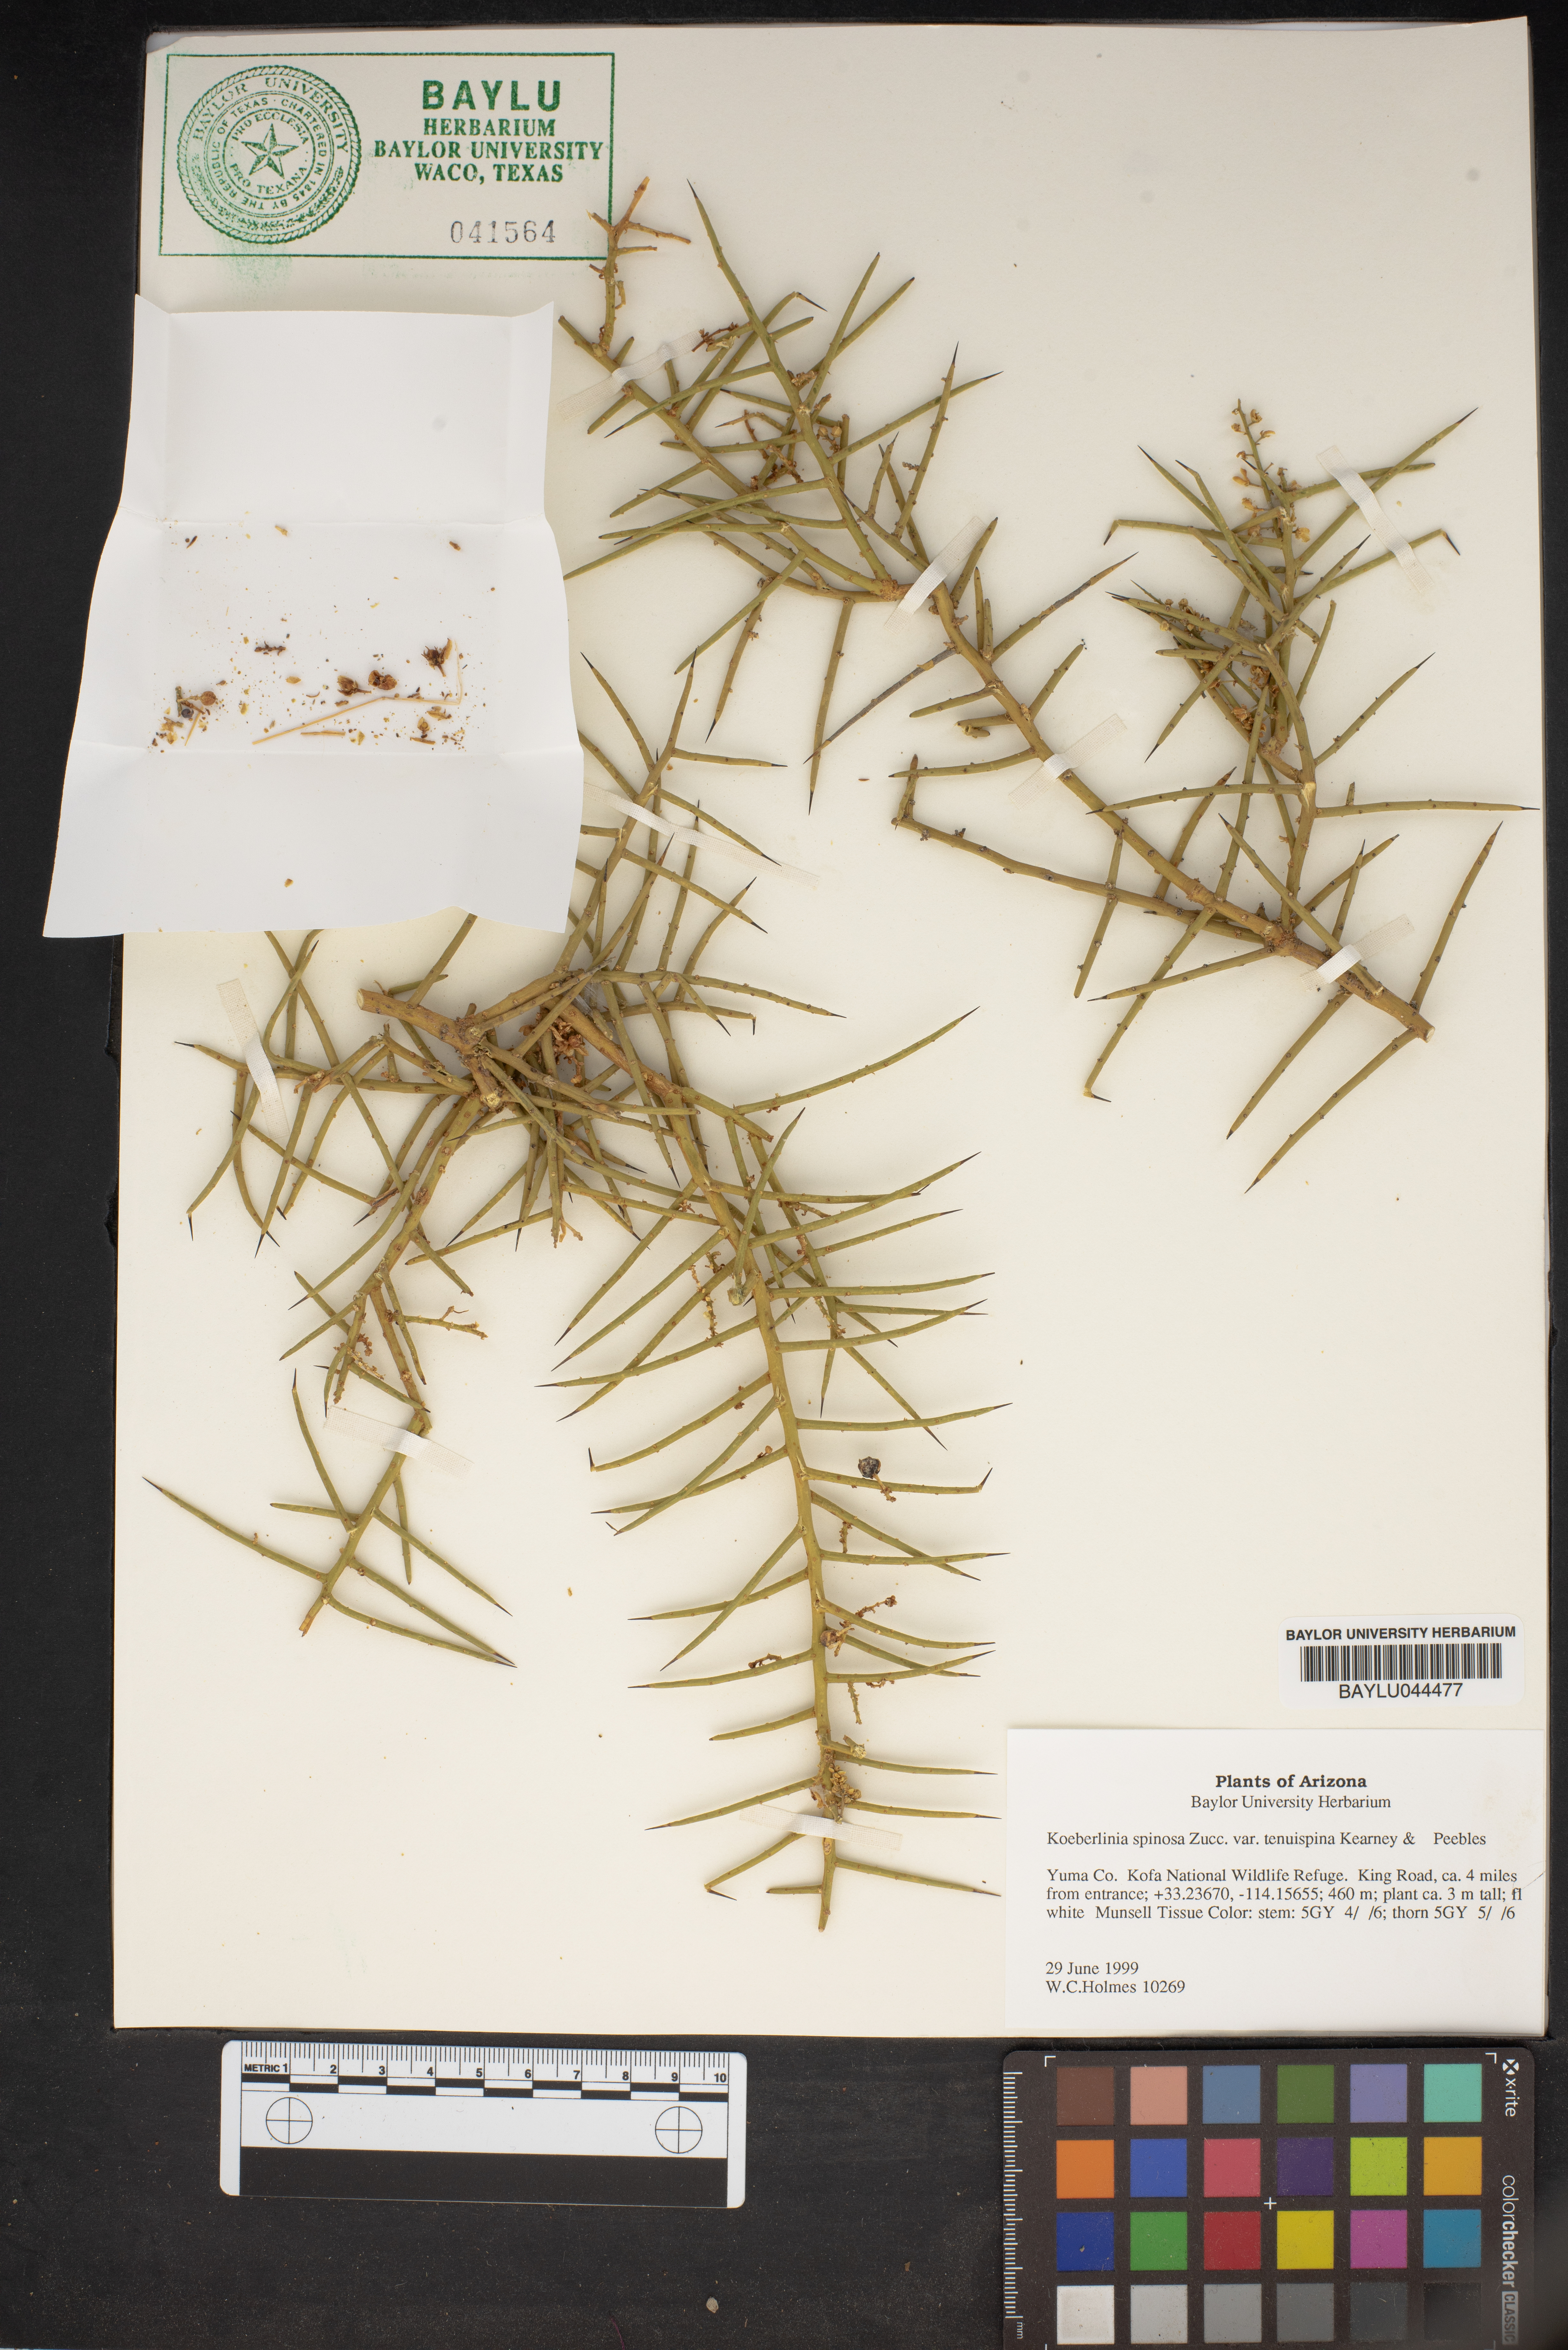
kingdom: Plantae
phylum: Tracheophyta
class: Magnoliopsida
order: Brassicales
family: Koeberliniaceae
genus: Koeberlinia
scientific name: Koeberlinia spinosa
